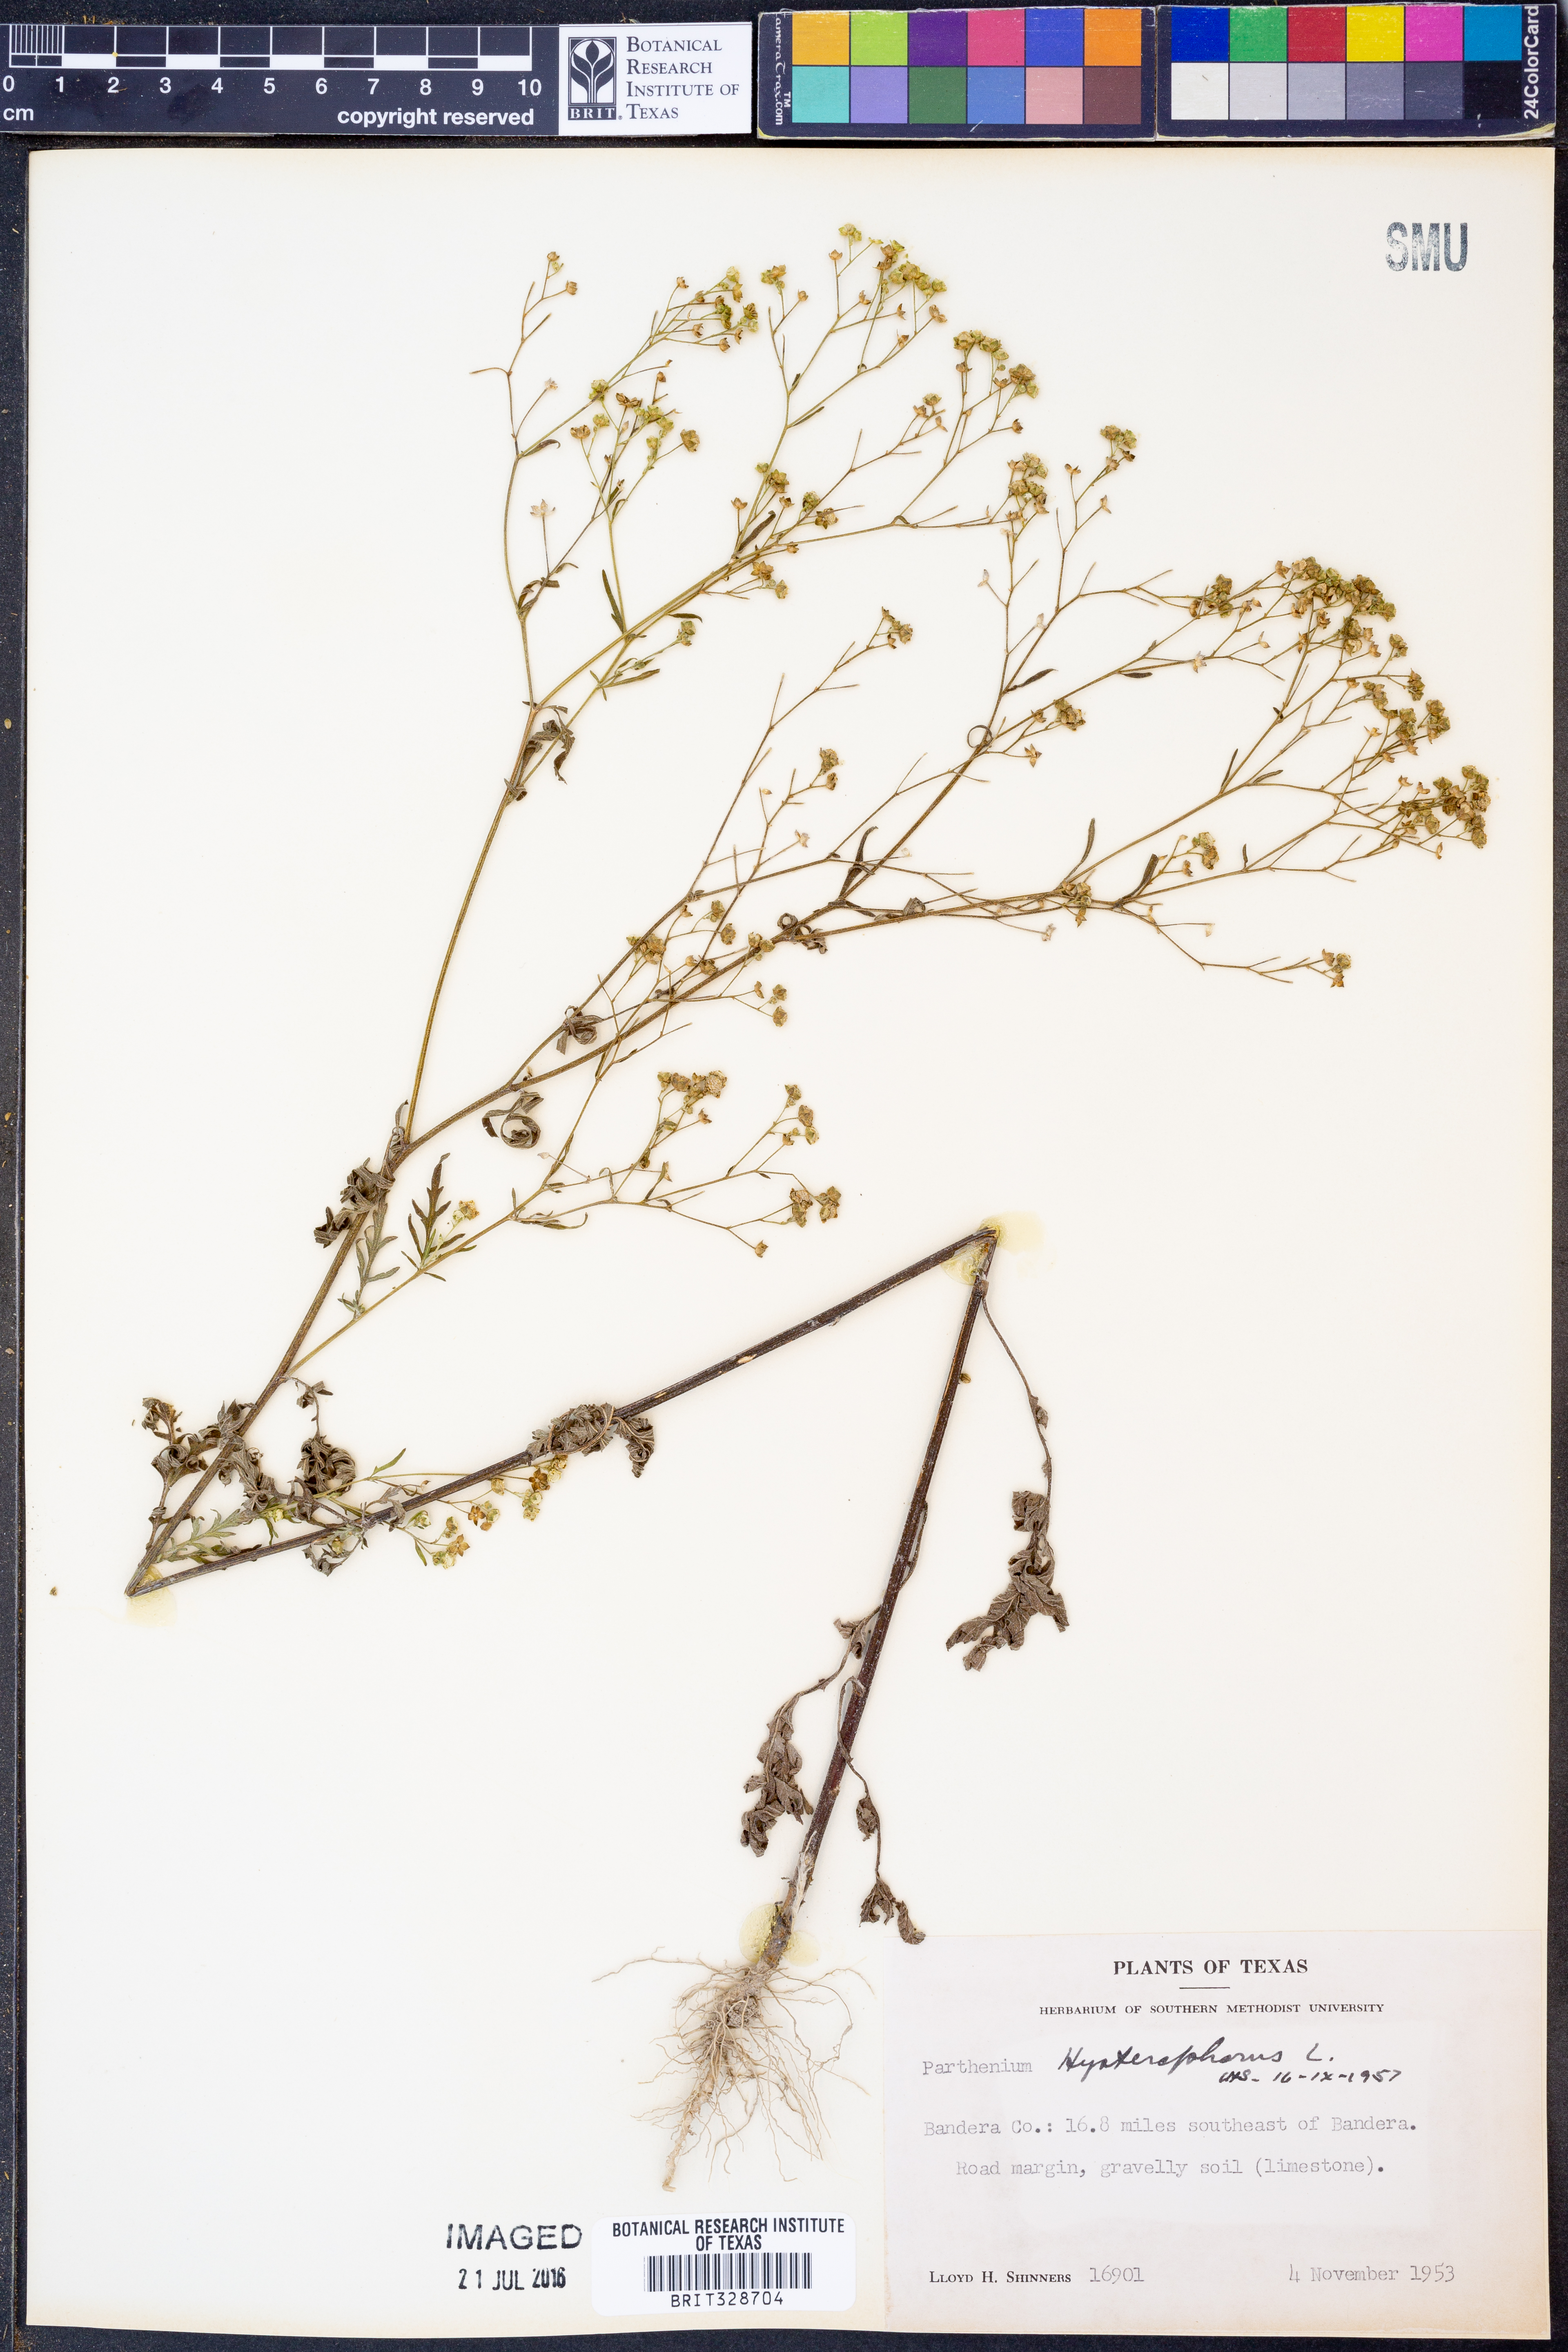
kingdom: Plantae
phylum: Tracheophyta
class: Magnoliopsida
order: Asterales
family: Asteraceae
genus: Parthenium
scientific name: Parthenium hysterophorus
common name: Santa maria feverfew
